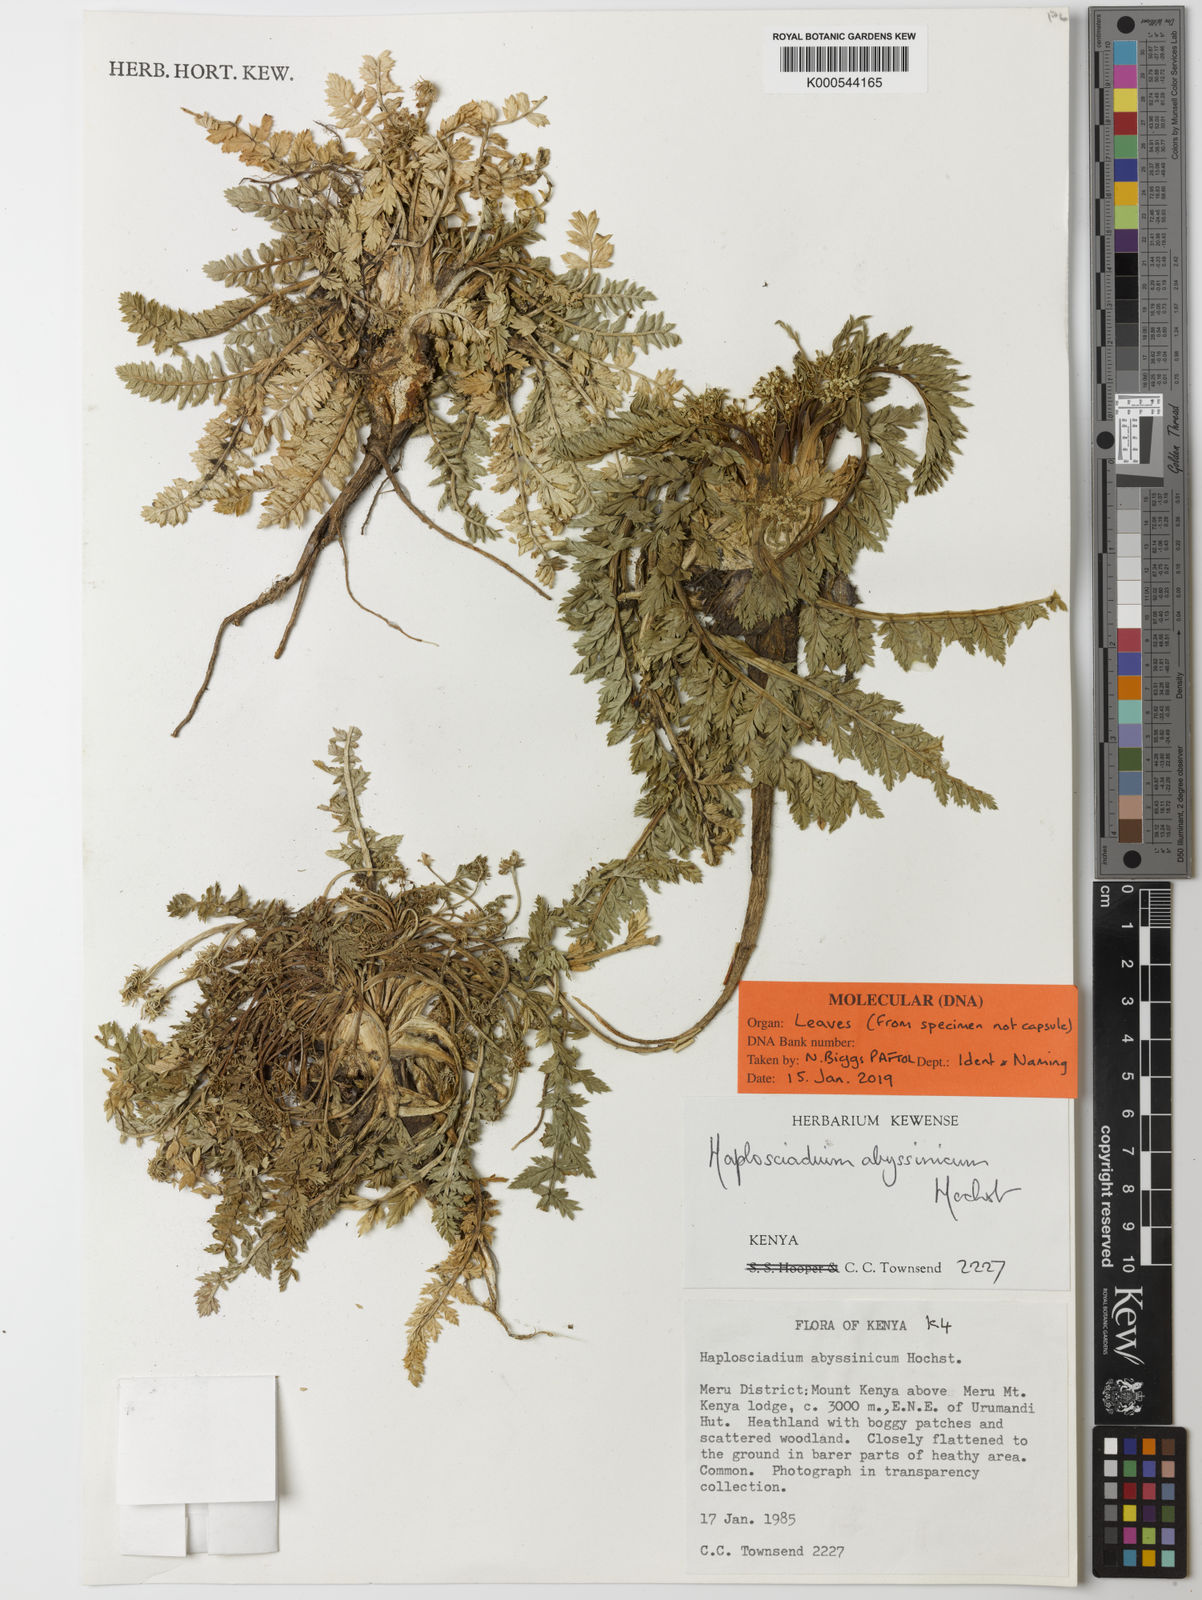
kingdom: Plantae
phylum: Tracheophyta
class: Magnoliopsida
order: Apiales
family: Apiaceae
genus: Haplosciadium
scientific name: Haplosciadium abyssinicum
